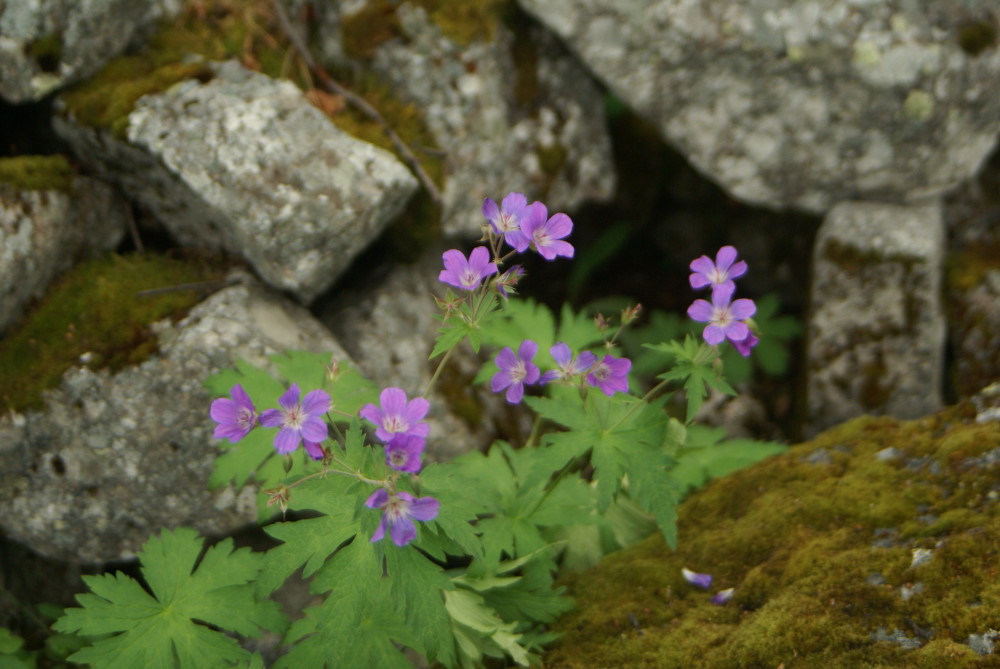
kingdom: Plantae
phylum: Tracheophyta
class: Magnoliopsida
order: Geraniales
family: Geraniaceae
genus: Geranium
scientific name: Geranium sylvaticum
